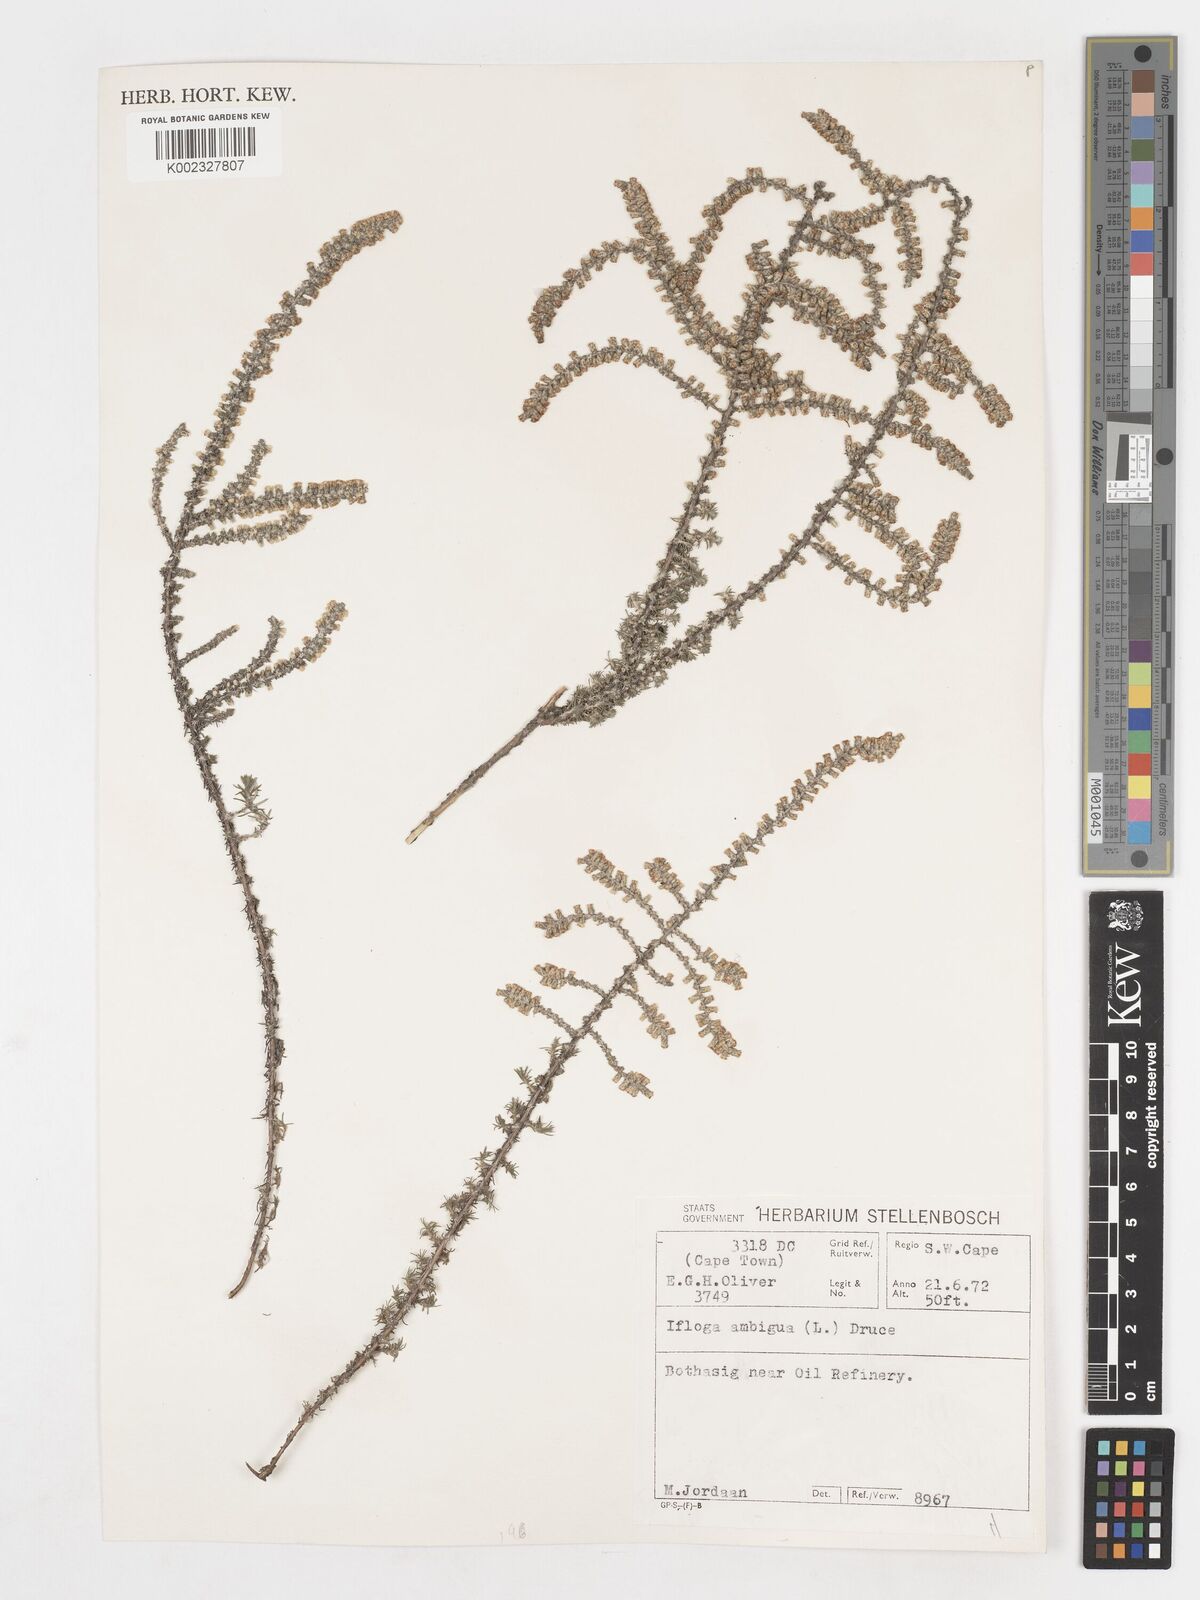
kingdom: Plantae
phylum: Tracheophyta
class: Magnoliopsida
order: Asterales
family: Asteraceae
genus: Ifloga
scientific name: Ifloga ambigua
